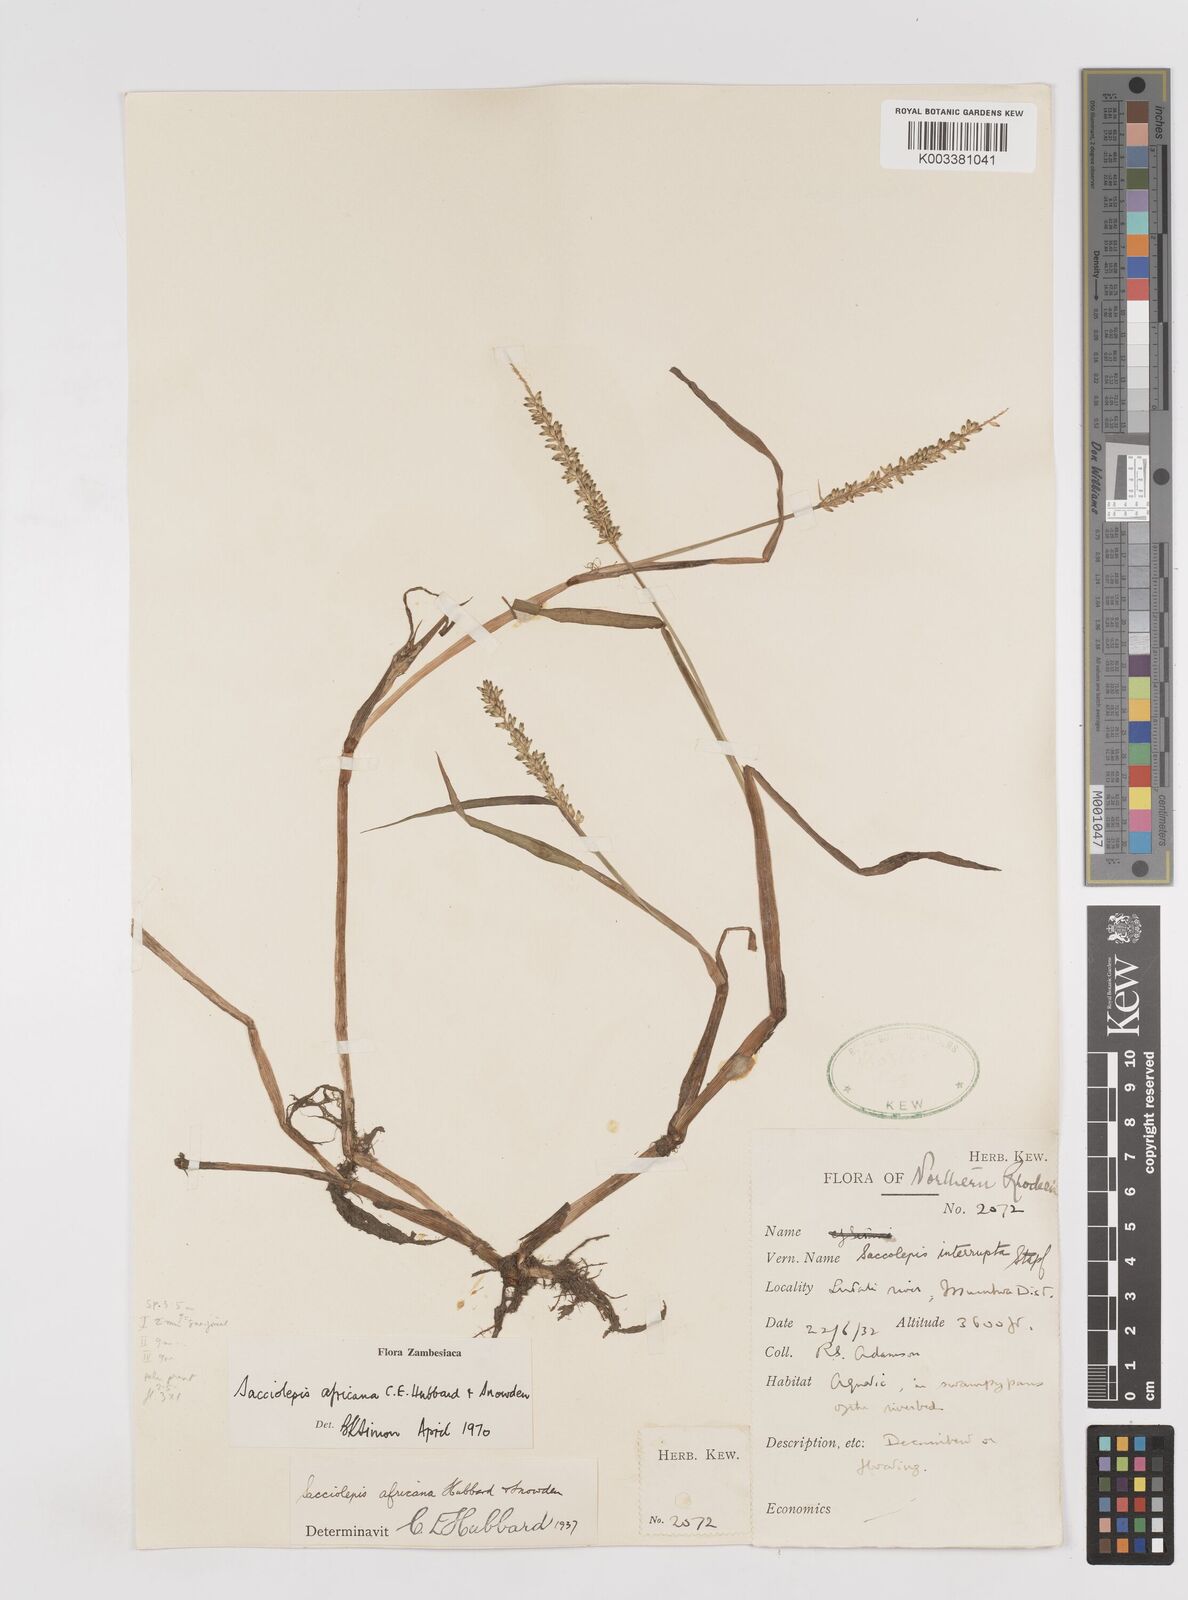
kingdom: Plantae
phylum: Tracheophyta
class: Liliopsida
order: Poales
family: Poaceae
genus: Sacciolepis
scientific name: Sacciolepis africana
